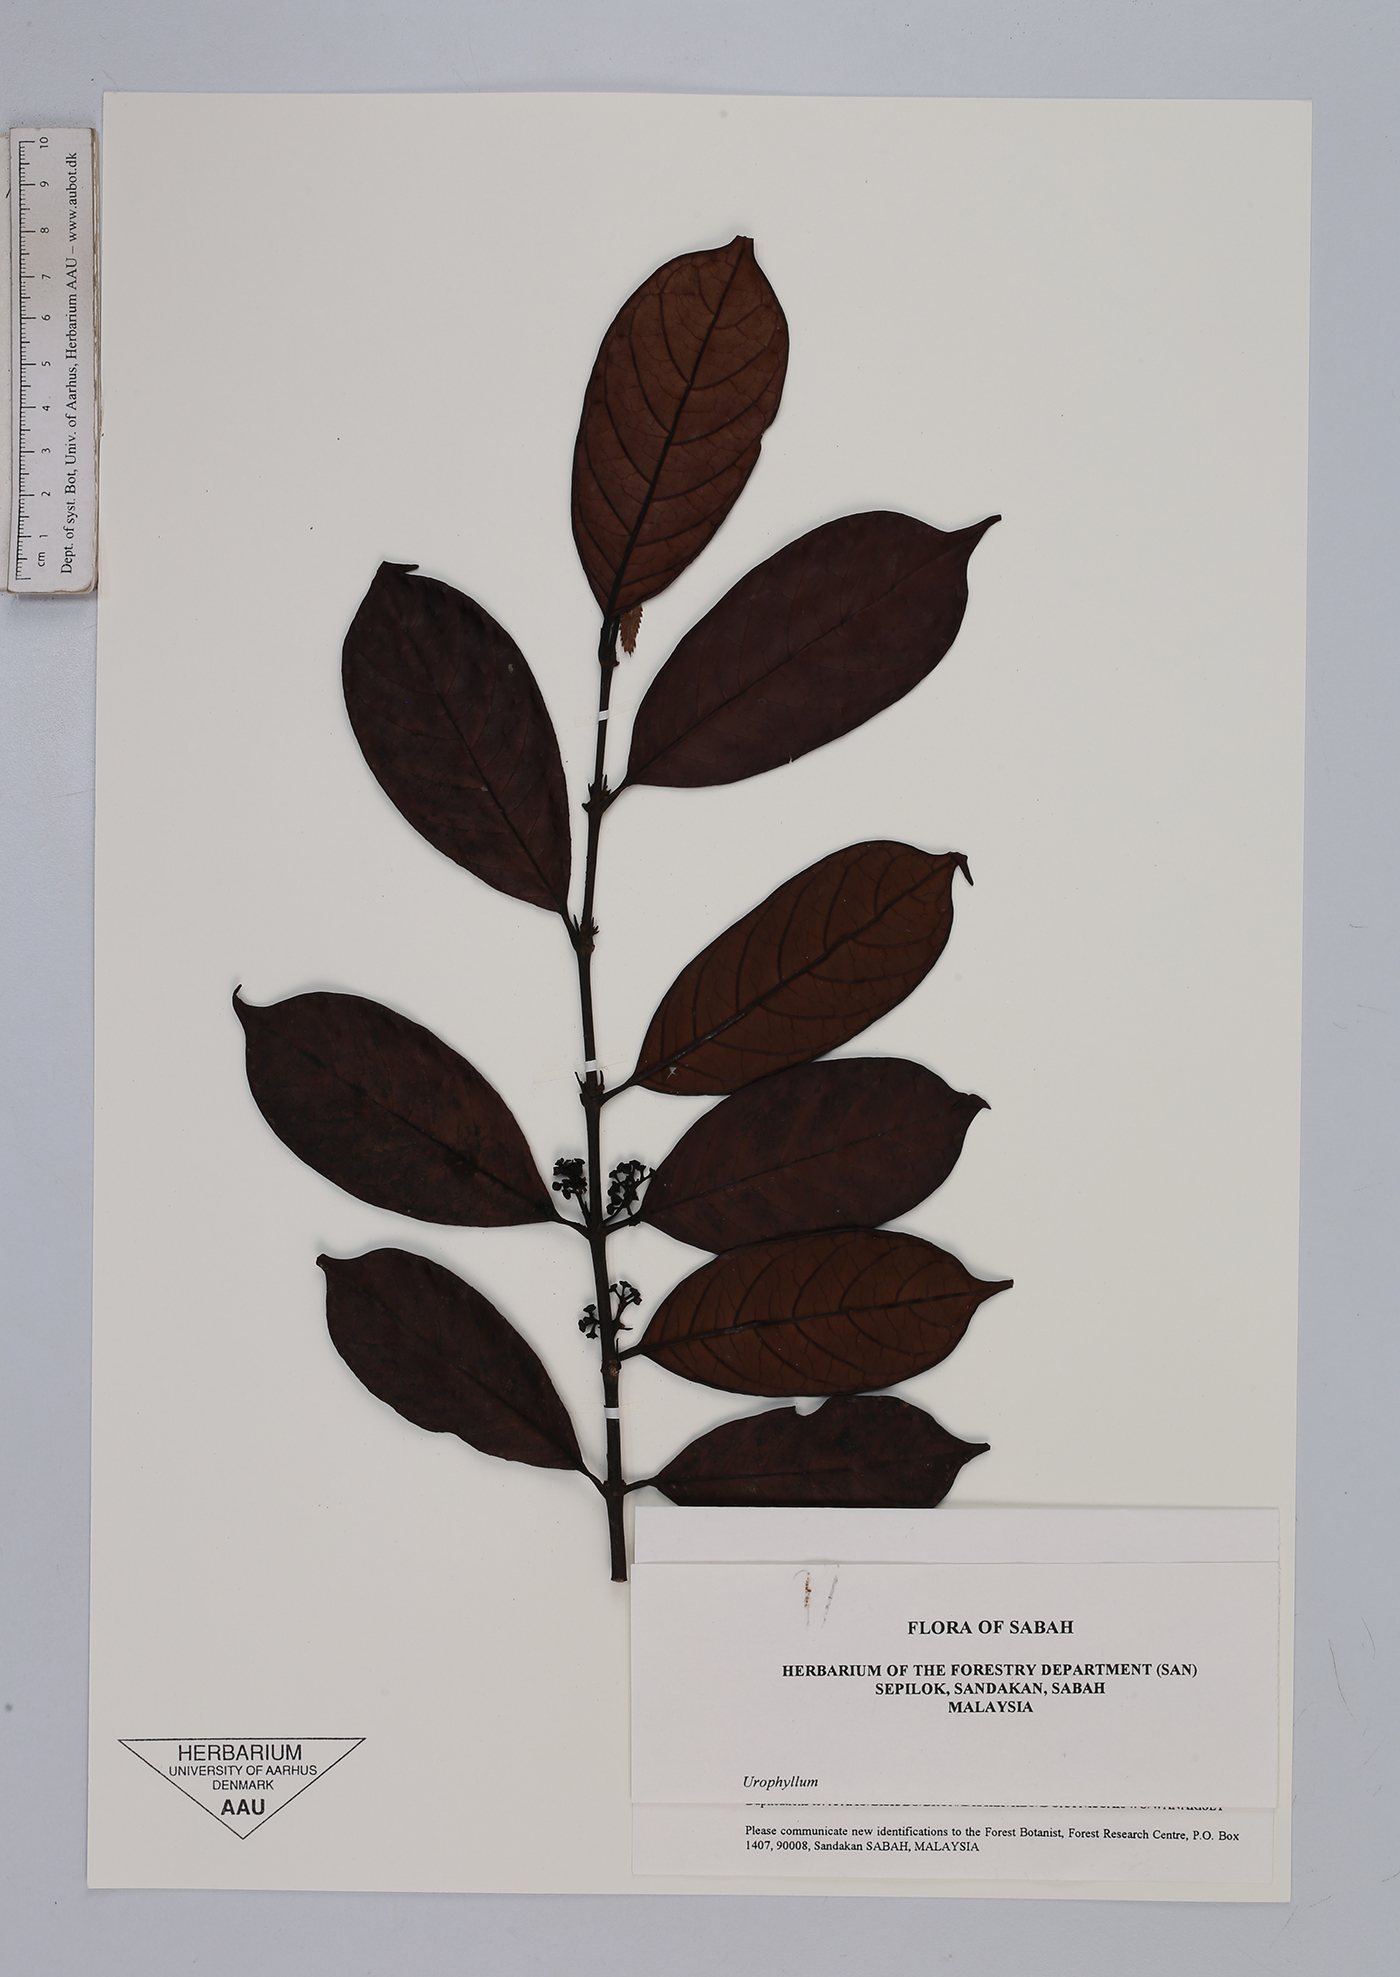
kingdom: Plantae
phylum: Tracheophyta
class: Magnoliopsida
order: Gentianales
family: Rubiaceae
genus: Urophyllum
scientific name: Urophyllum
